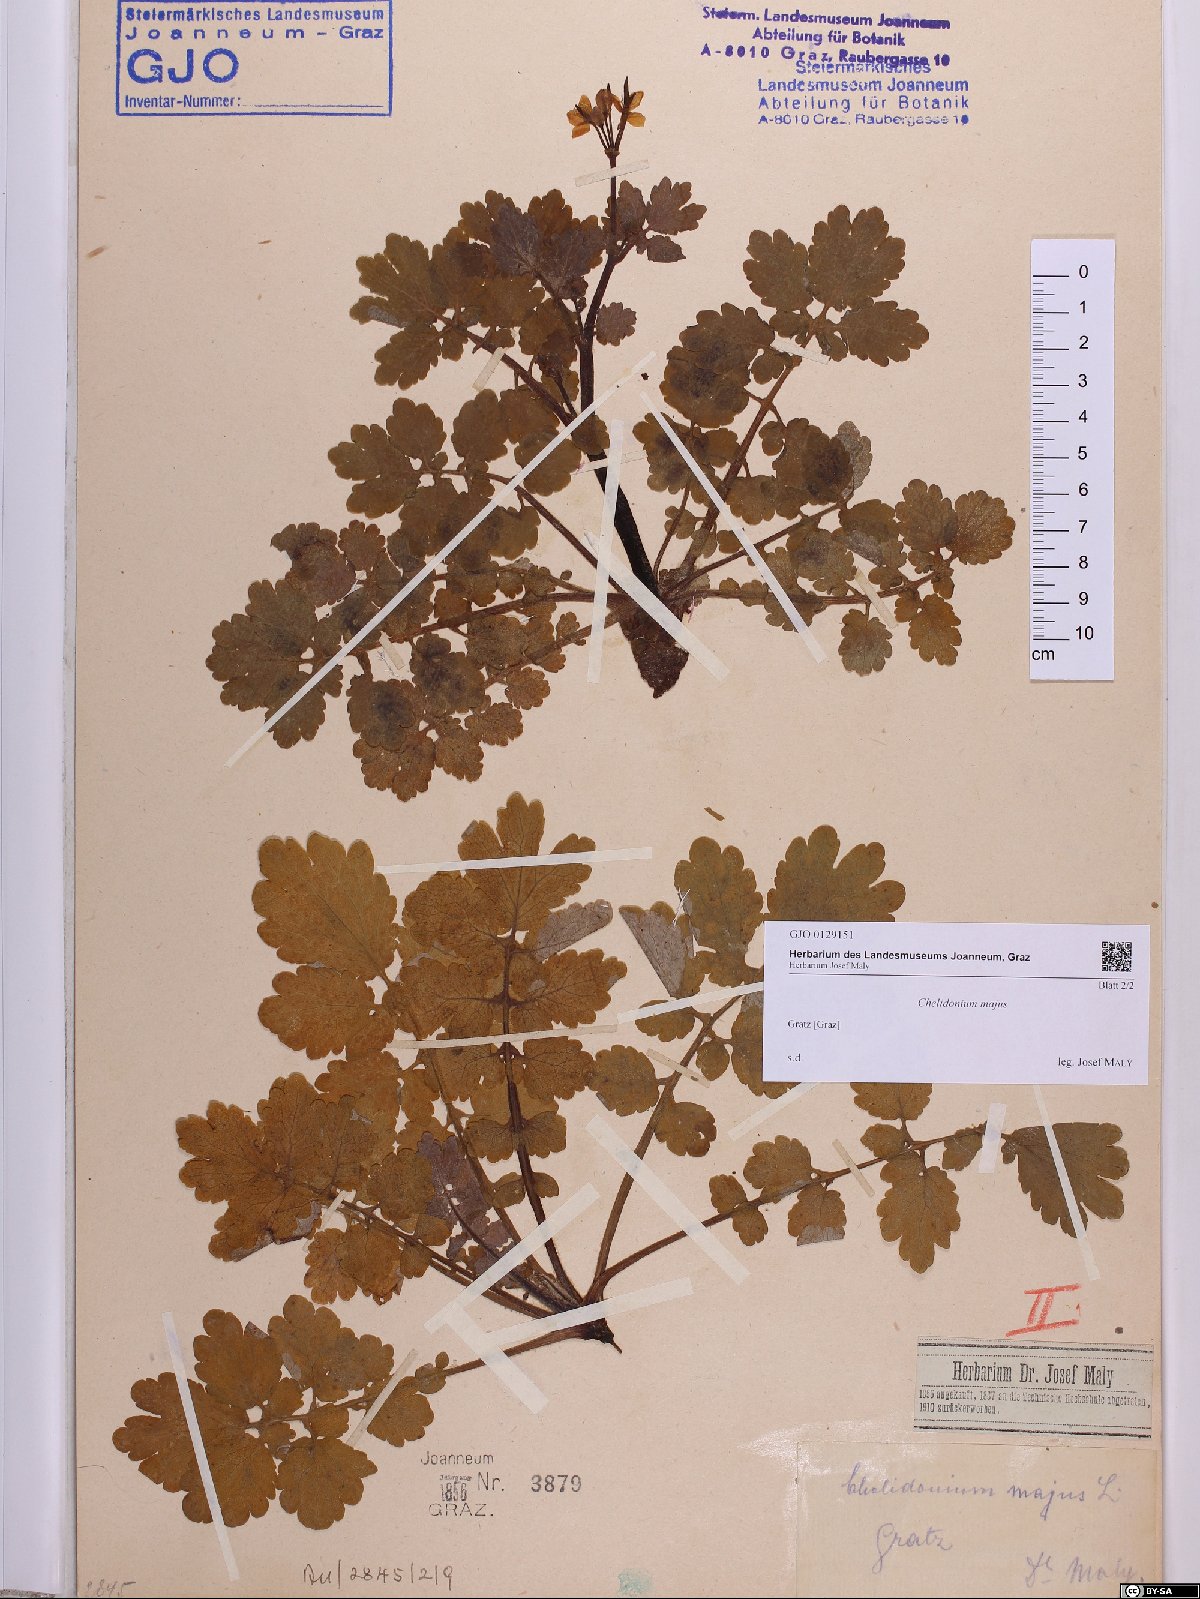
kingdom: Plantae
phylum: Tracheophyta
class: Magnoliopsida
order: Ranunculales
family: Papaveraceae
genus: Chelidonium
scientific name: Chelidonium majus
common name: Greater celandine
